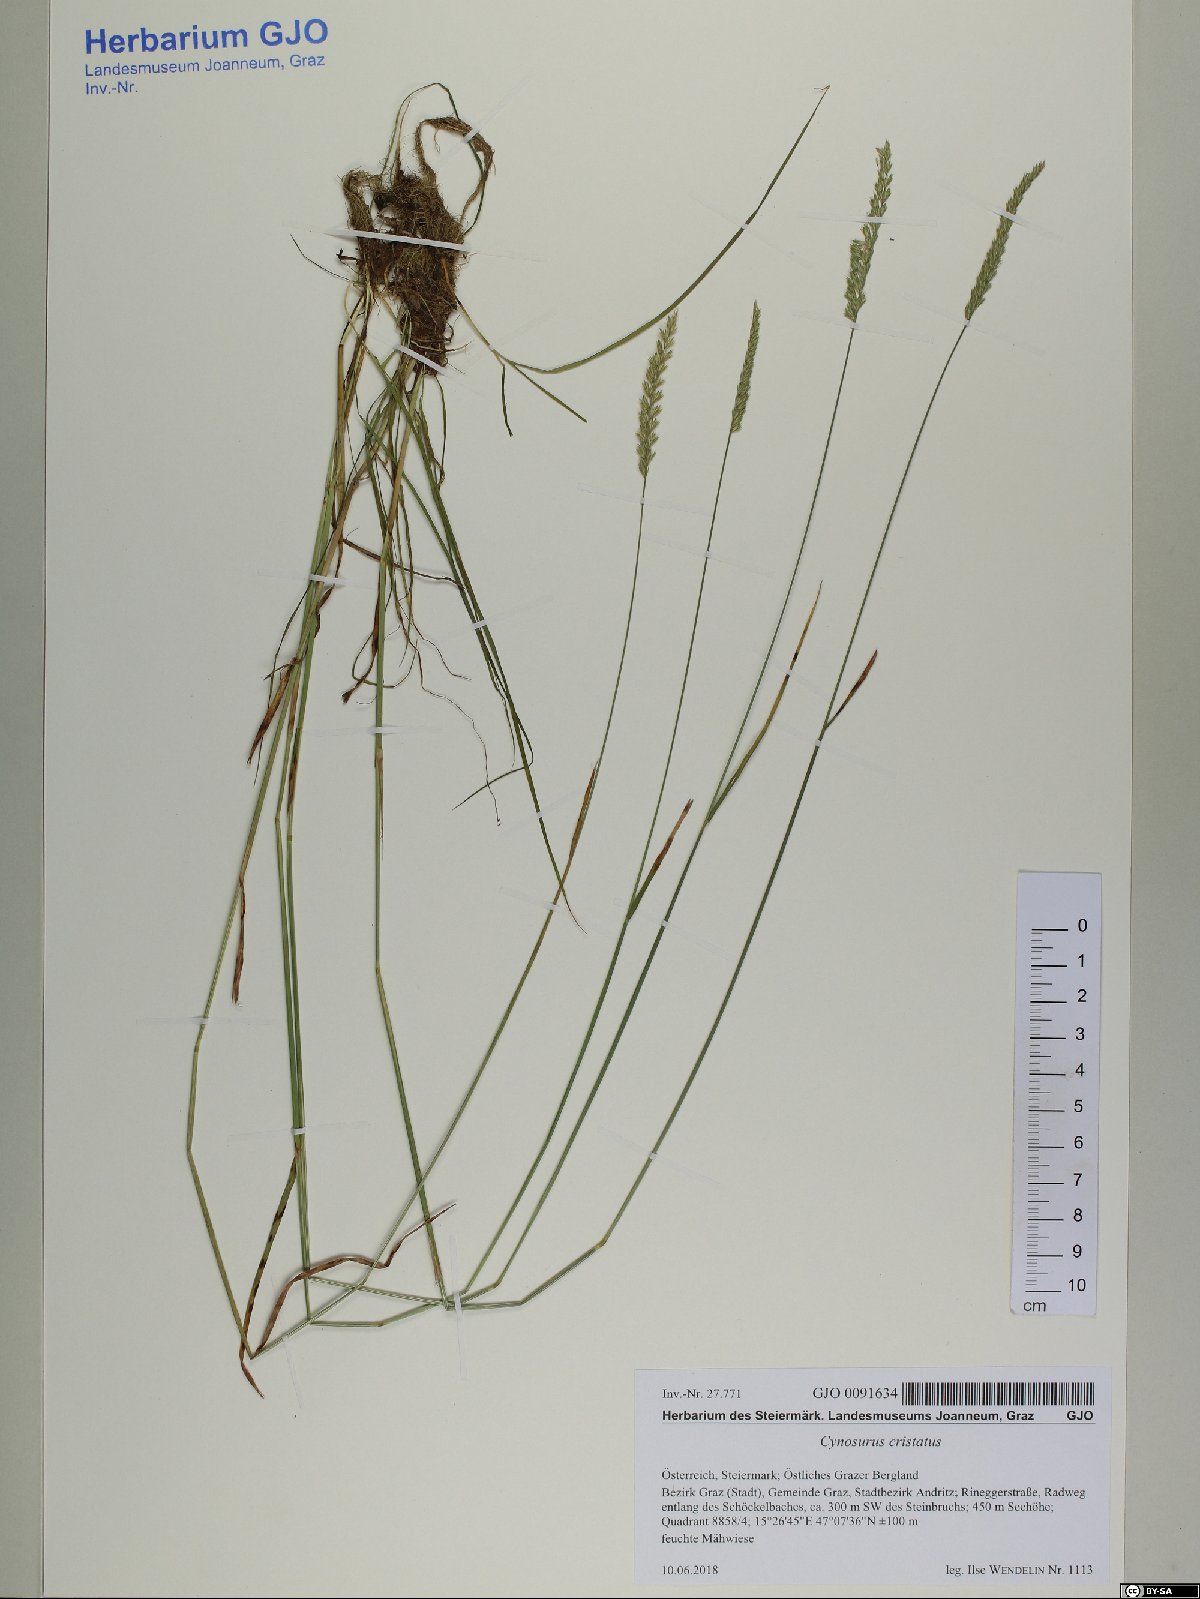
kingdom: Plantae
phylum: Tracheophyta
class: Liliopsida
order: Poales
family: Poaceae
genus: Cynosurus
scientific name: Cynosurus cristatus
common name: Crested dog's-tail
